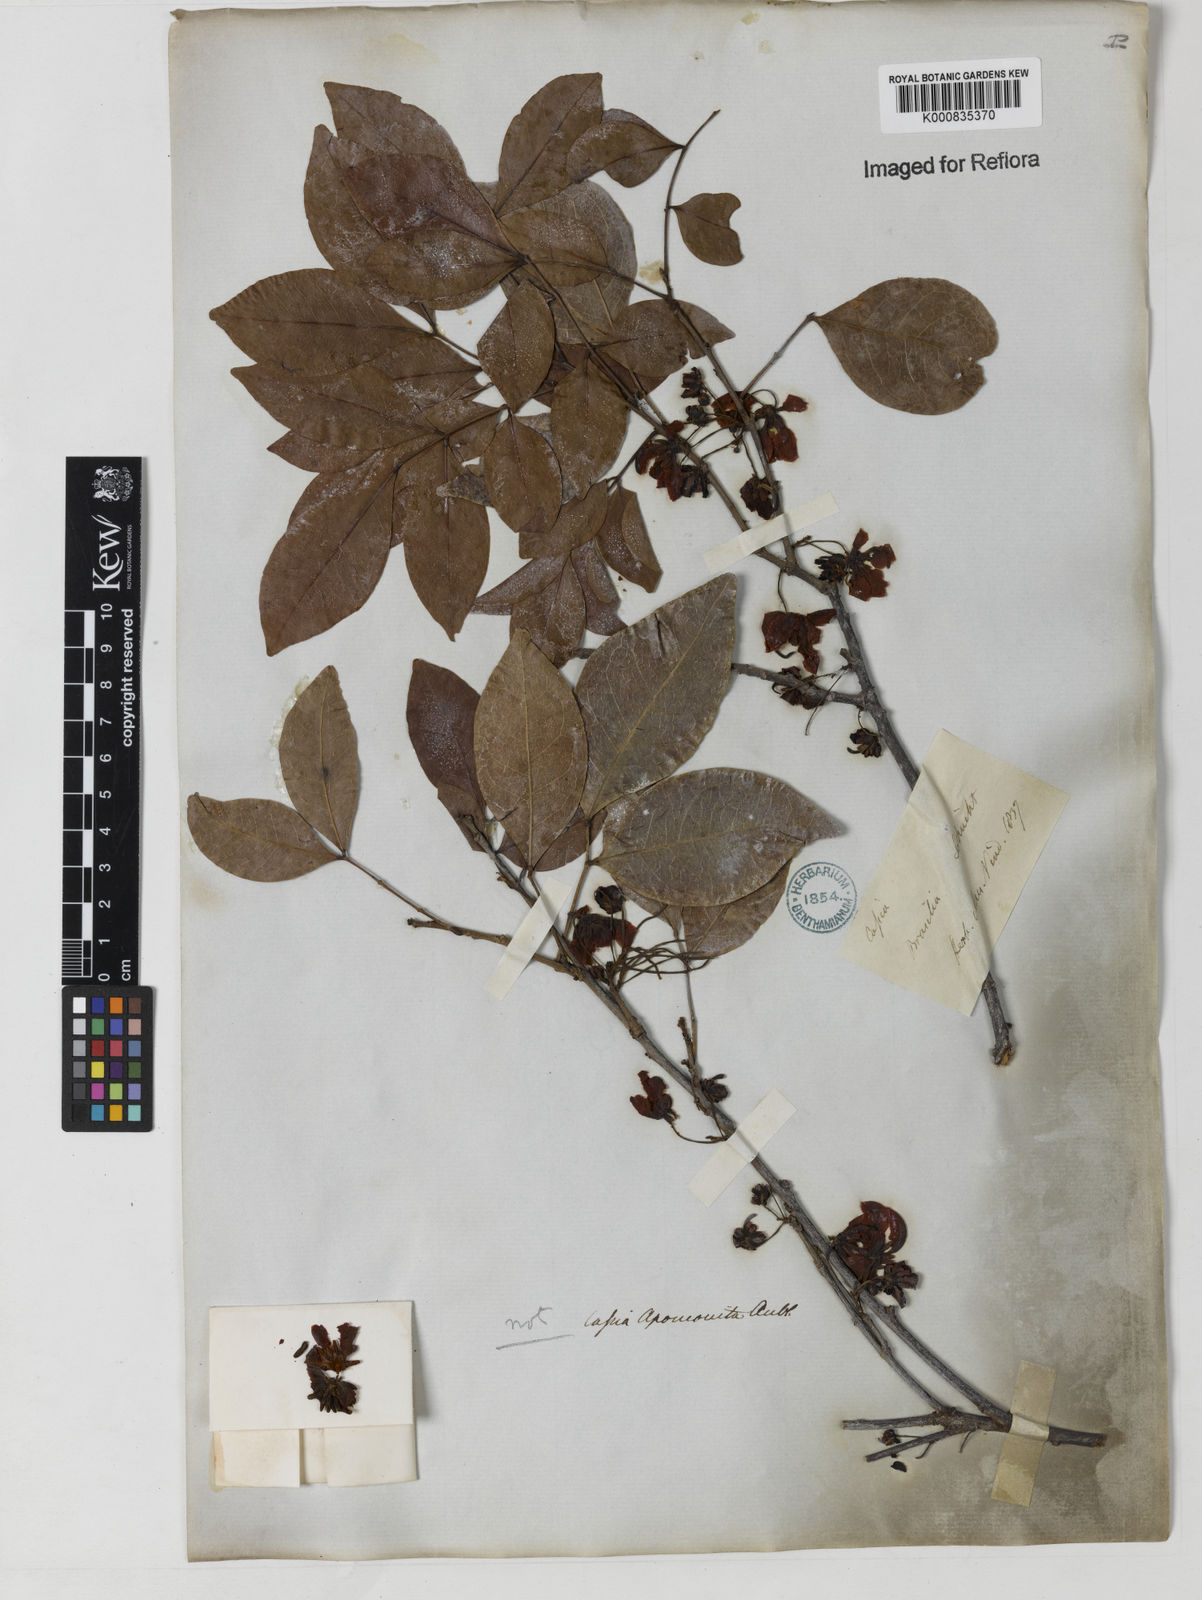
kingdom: Plantae
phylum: Tracheophyta
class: Magnoliopsida
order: Fabales
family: Fabaceae
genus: Chamaecrista
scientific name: Chamaecrista ensiformis
